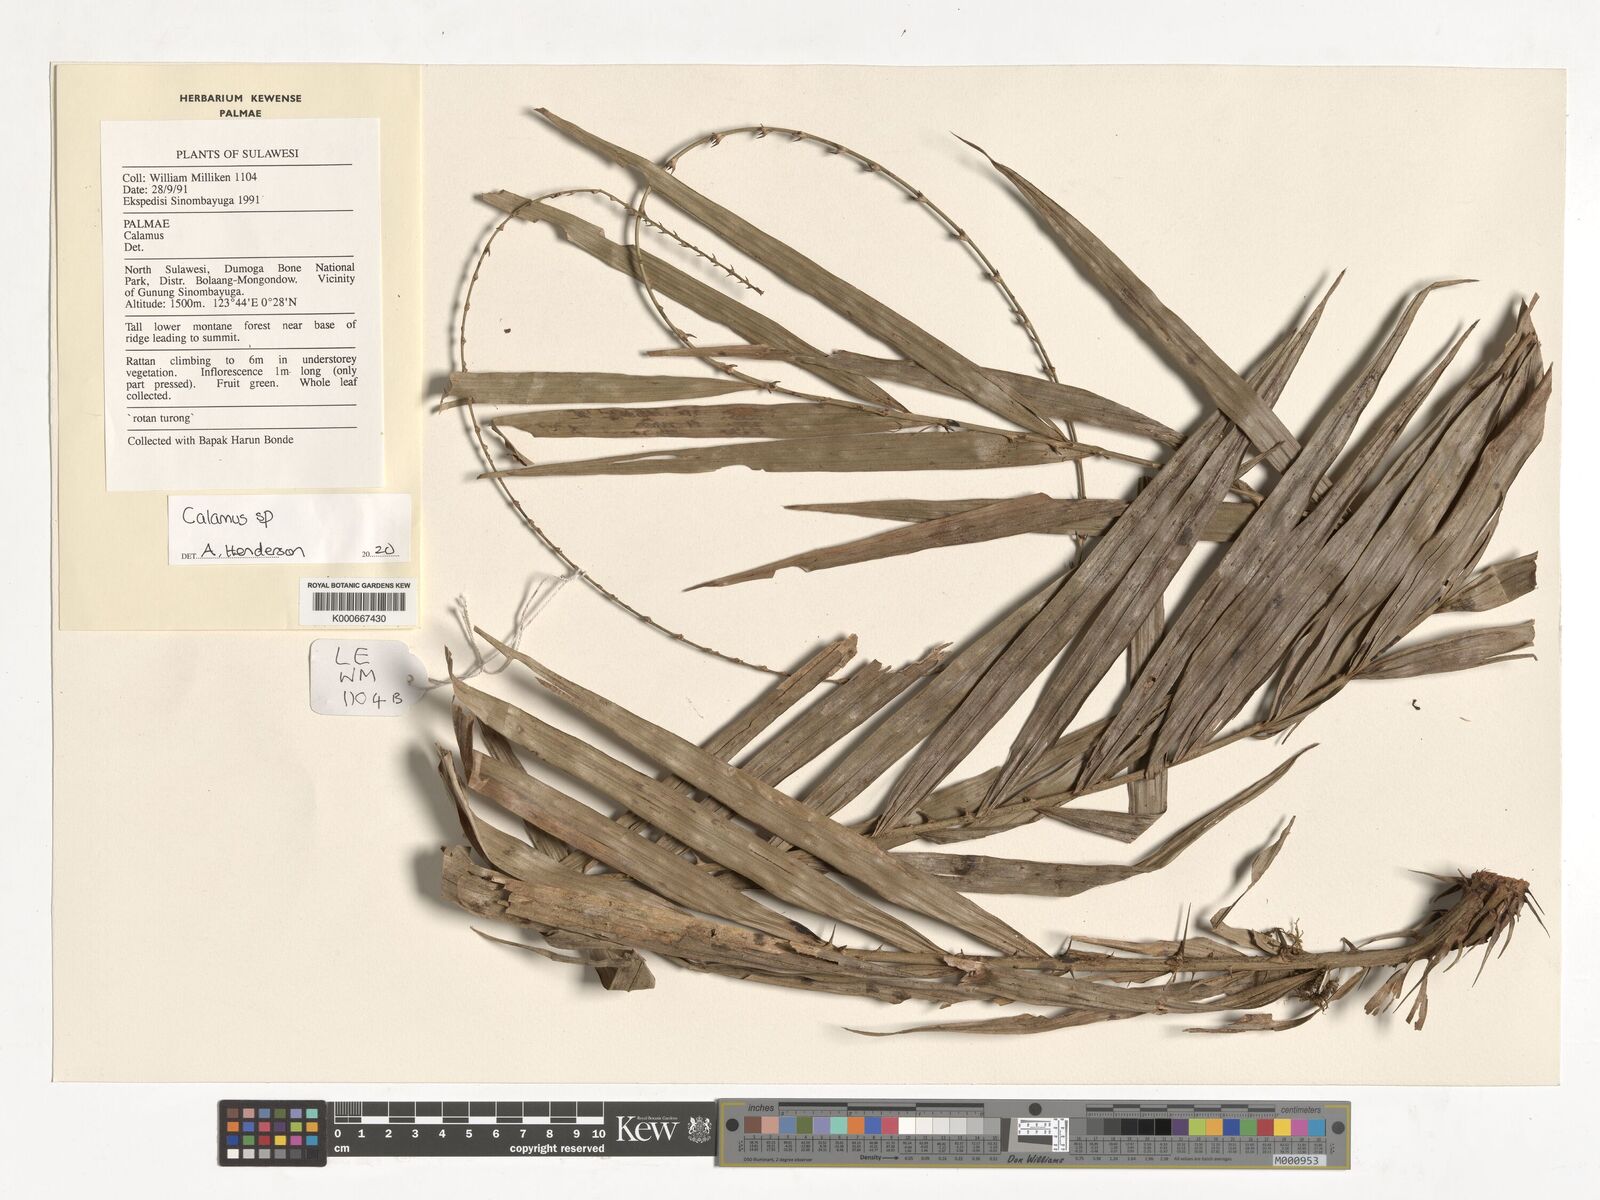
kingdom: Plantae
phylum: Tracheophyta
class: Liliopsida
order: Arecales
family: Arecaceae
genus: Calamus
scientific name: Calamus
